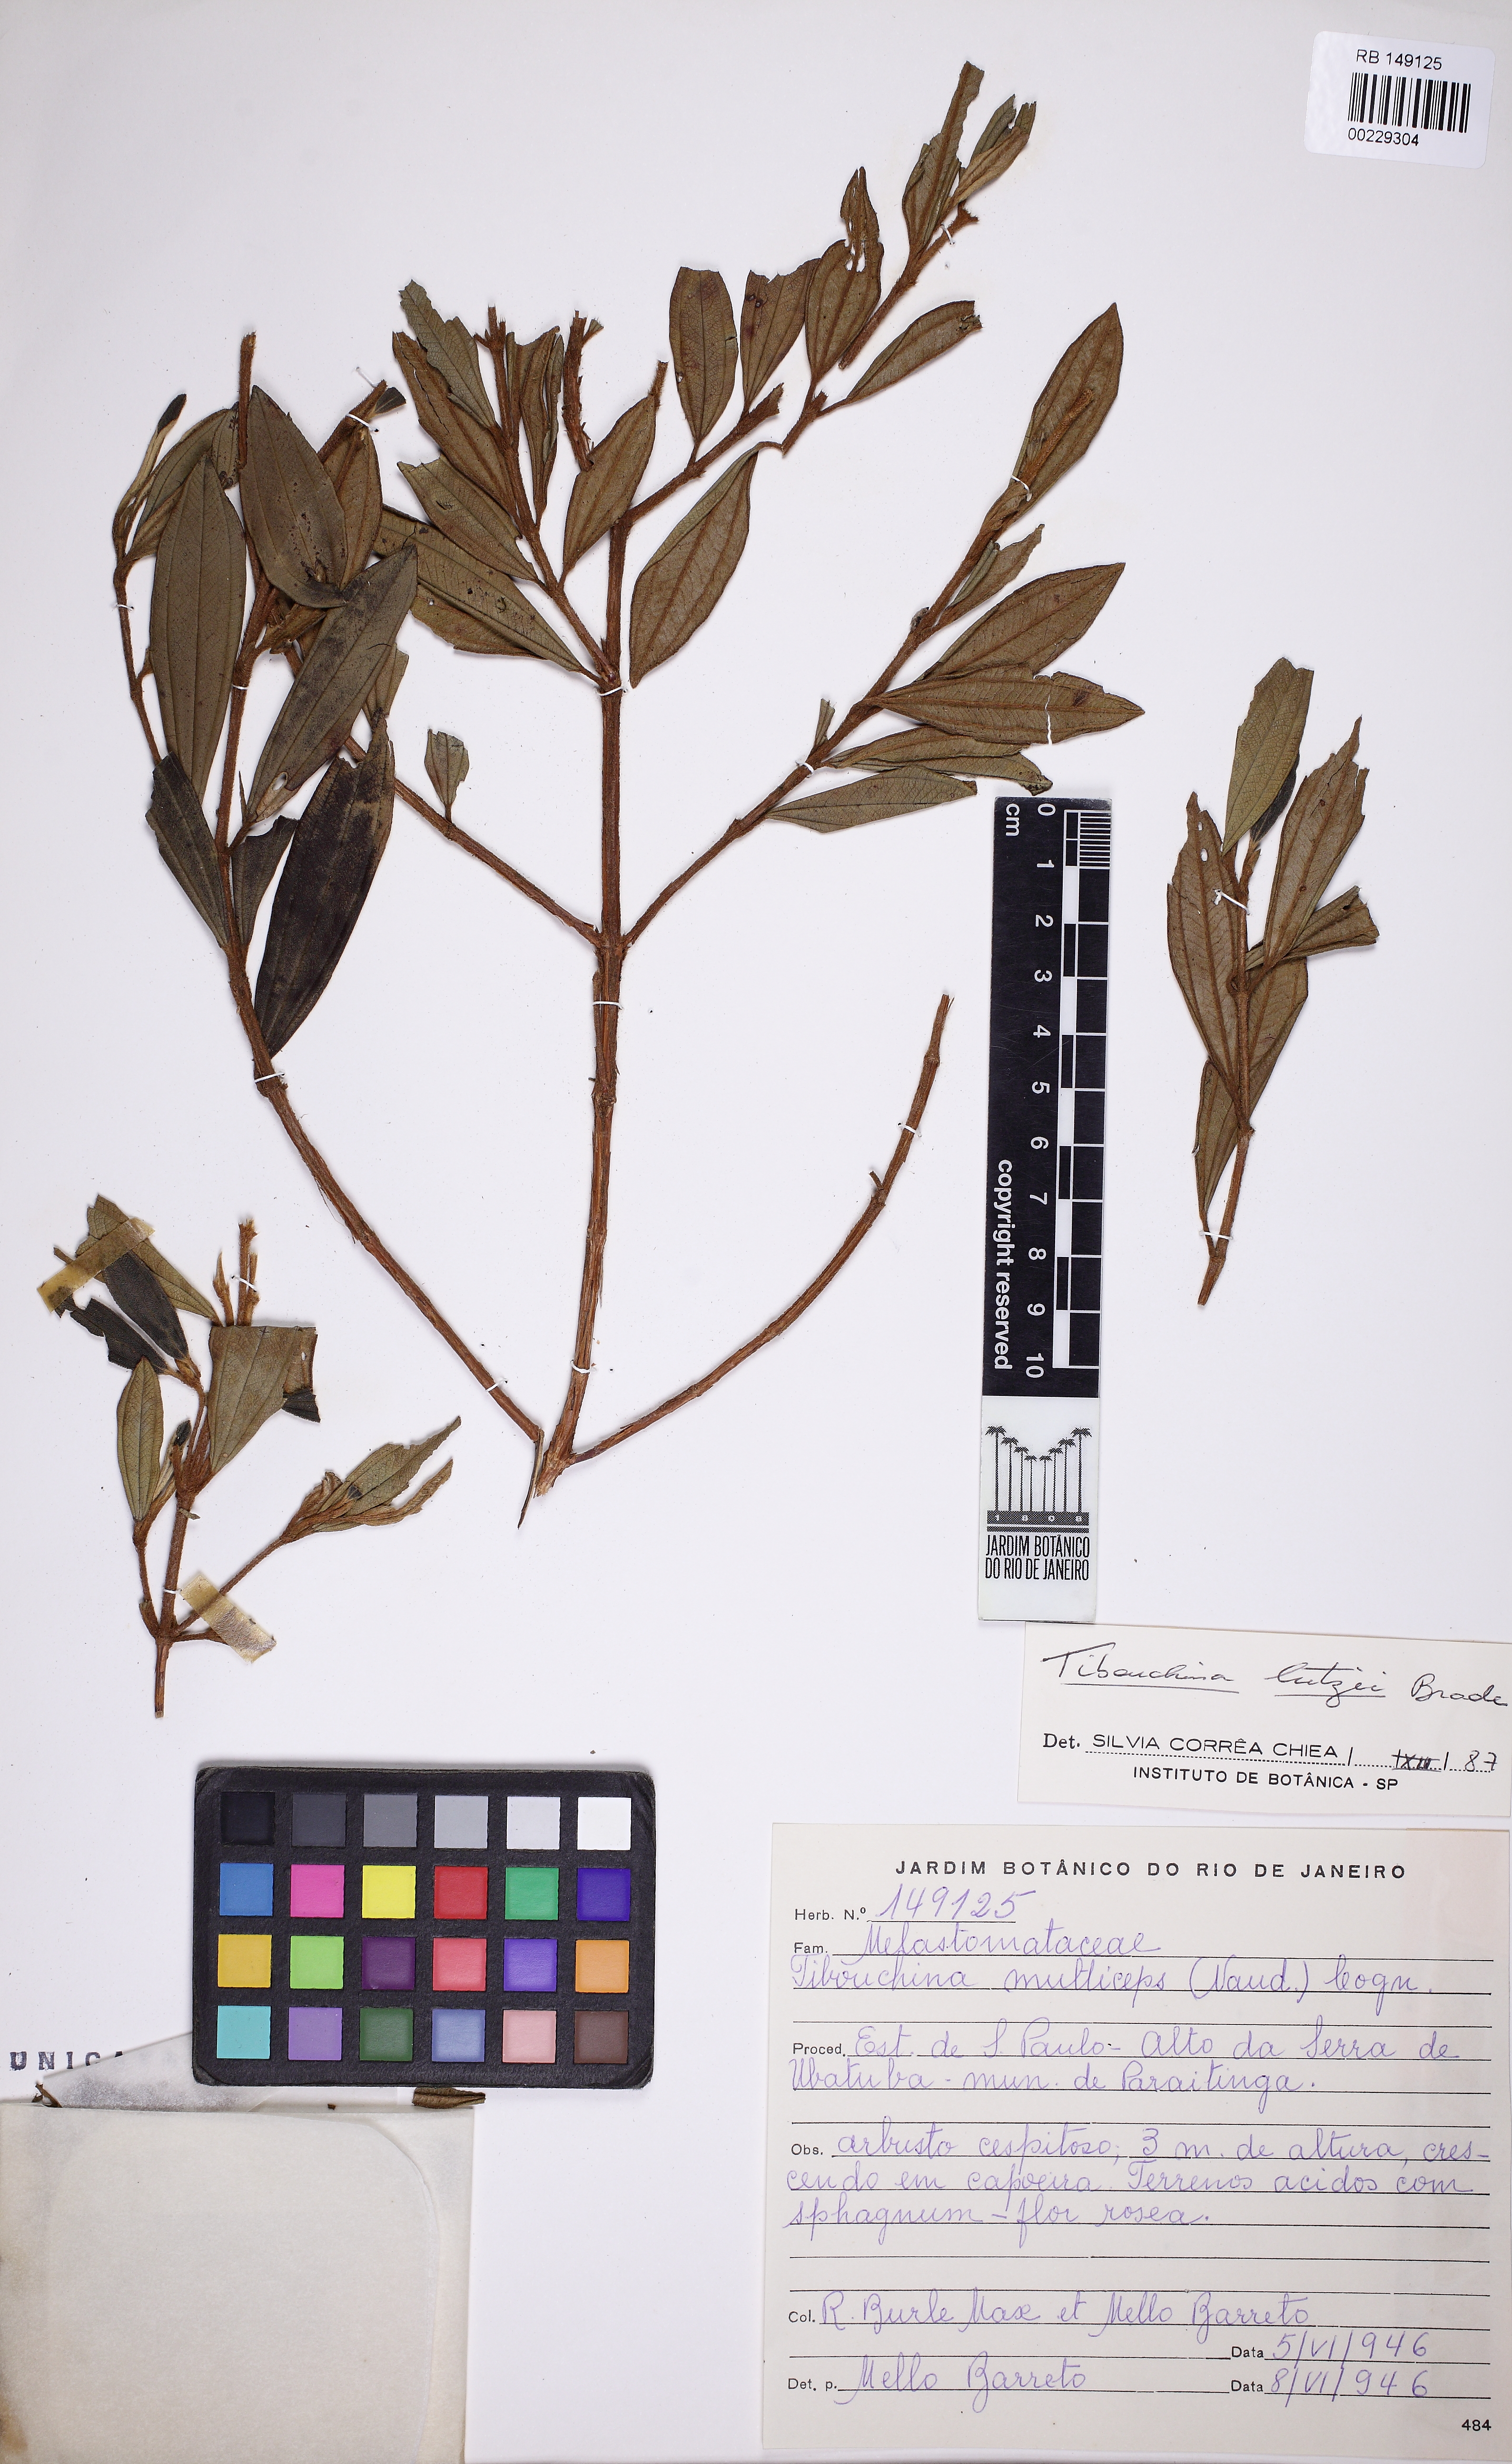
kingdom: Plantae
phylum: Tracheophyta
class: Magnoliopsida
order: Myrtales
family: Melastomataceae
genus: Pleroma
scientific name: Pleroma maximilianum
